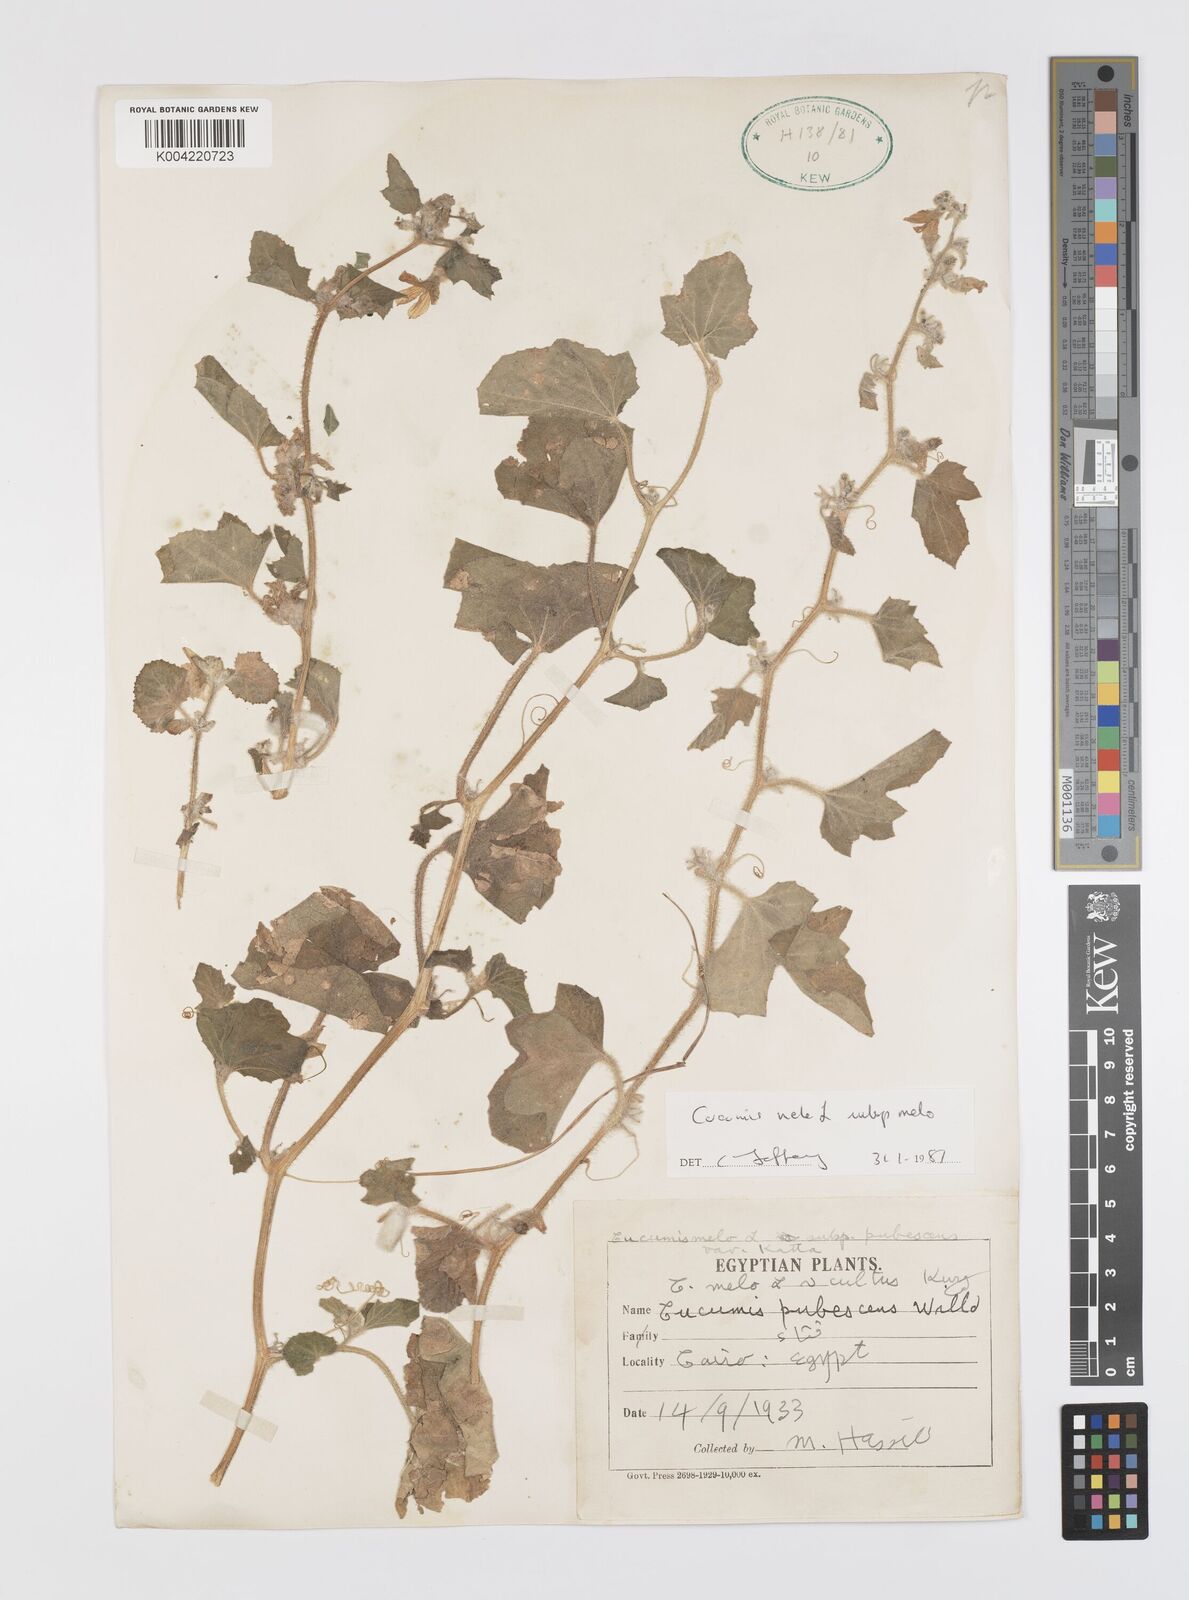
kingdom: Plantae
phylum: Tracheophyta
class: Magnoliopsida
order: Cucurbitales
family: Cucurbitaceae
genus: Cucumis
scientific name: Cucumis melo
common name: Melon
